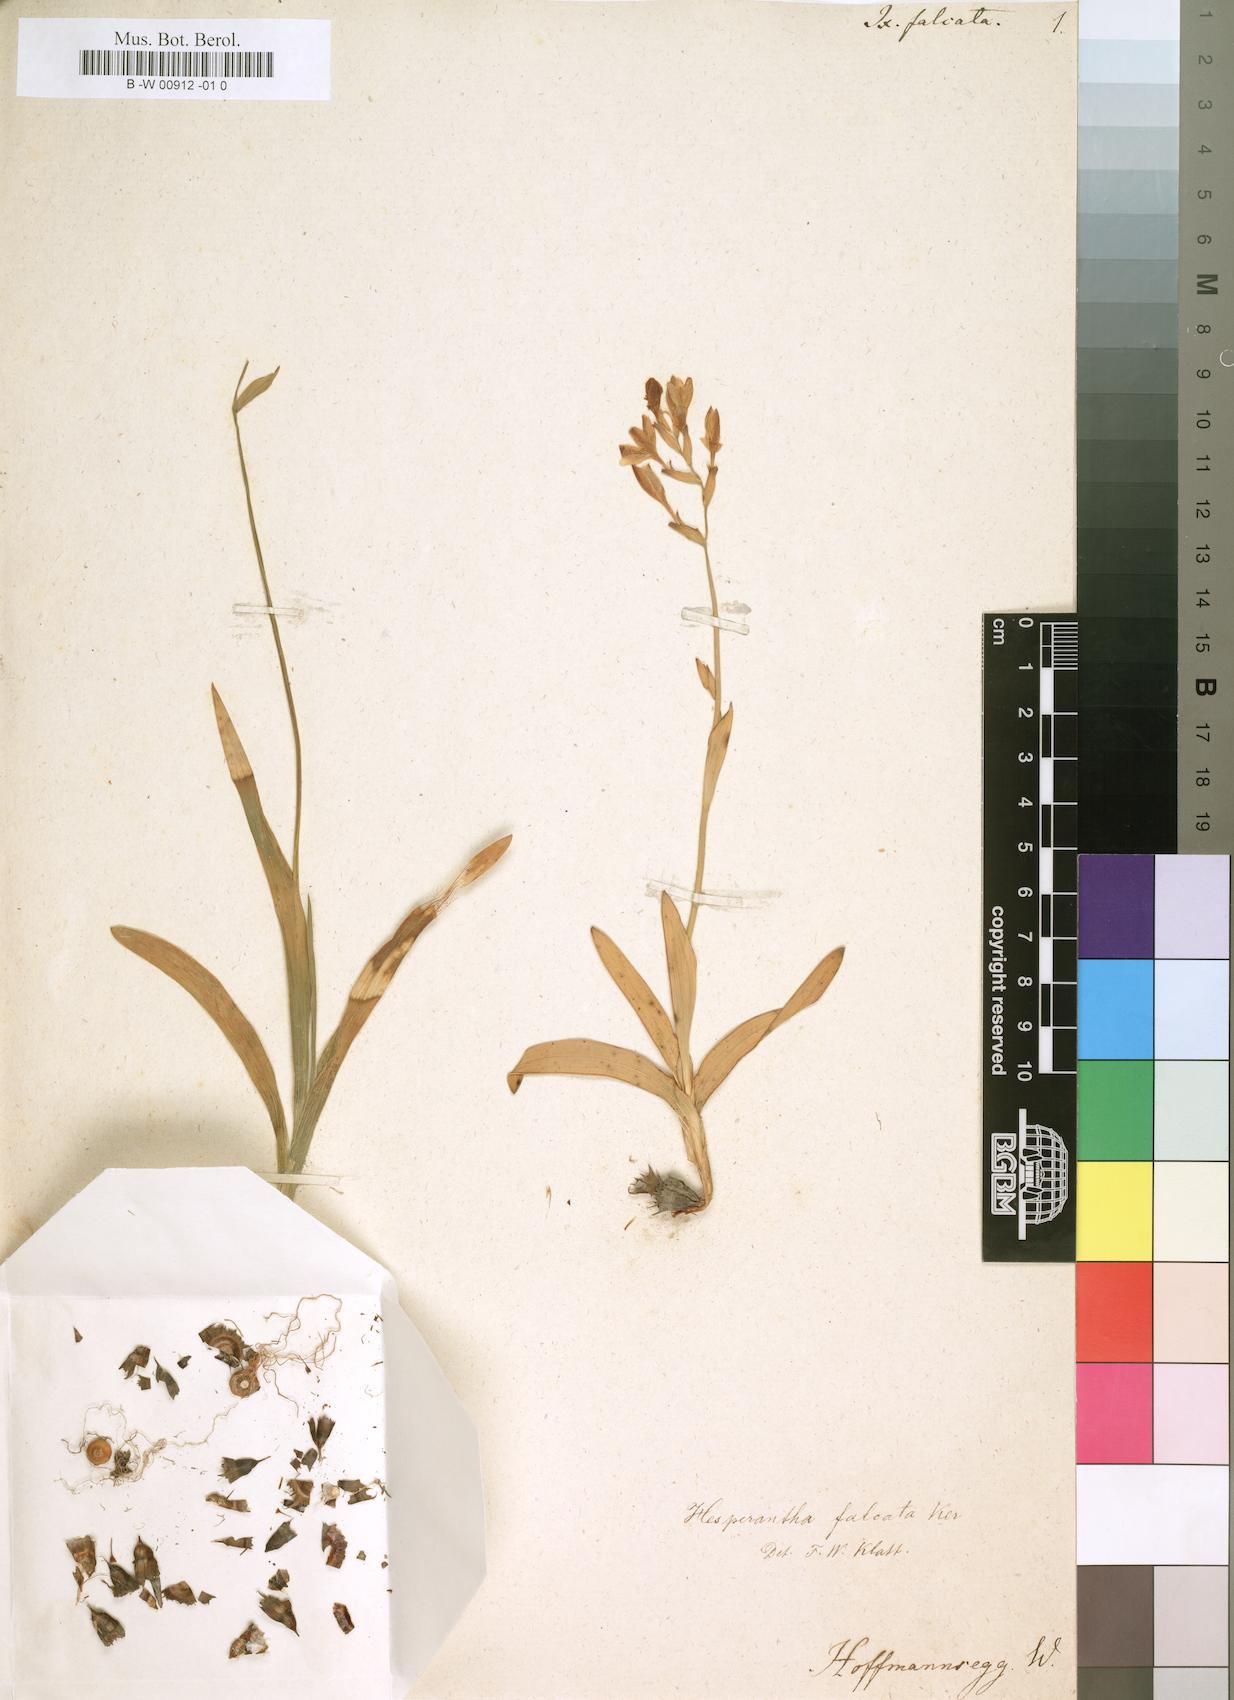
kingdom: Plantae
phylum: Tracheophyta
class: Liliopsida
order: Asparagales
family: Iridaceae
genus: Ixia
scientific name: Ixia falcata
